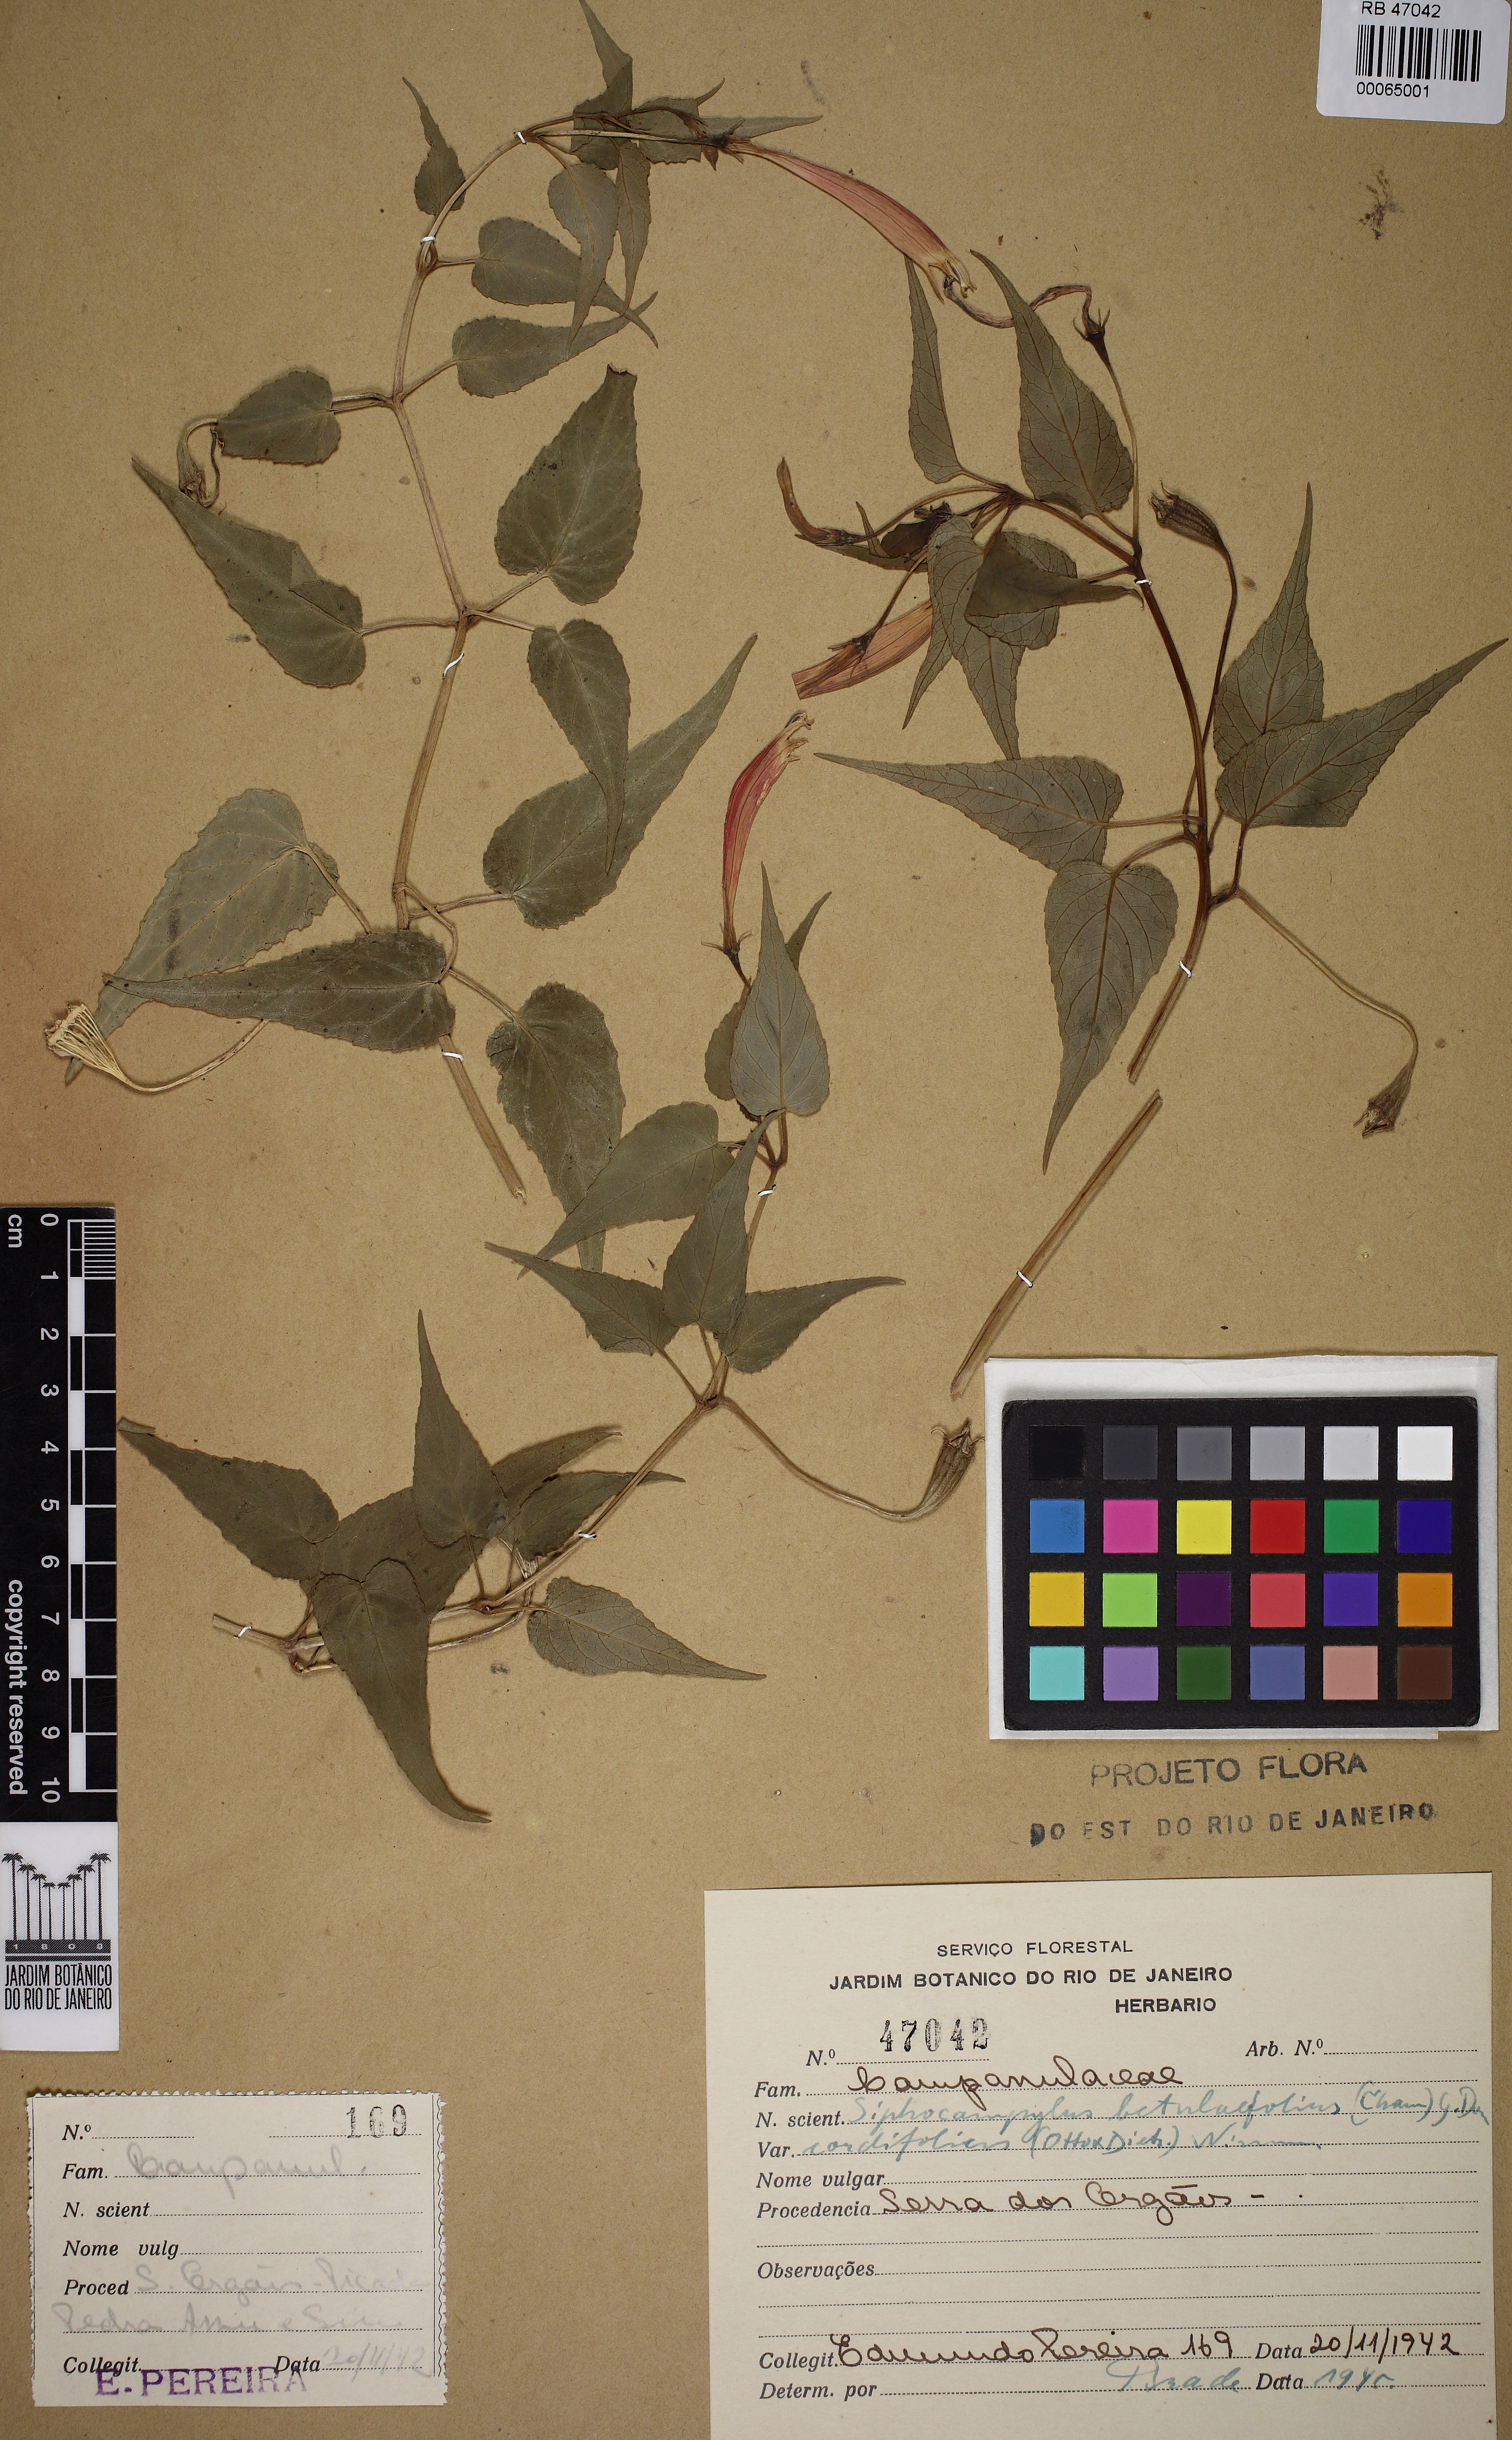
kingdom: Plantae
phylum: Tracheophyta
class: Magnoliopsida
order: Asterales
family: Campanulaceae
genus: Siphocampylus
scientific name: Siphocampylus betulifolius
